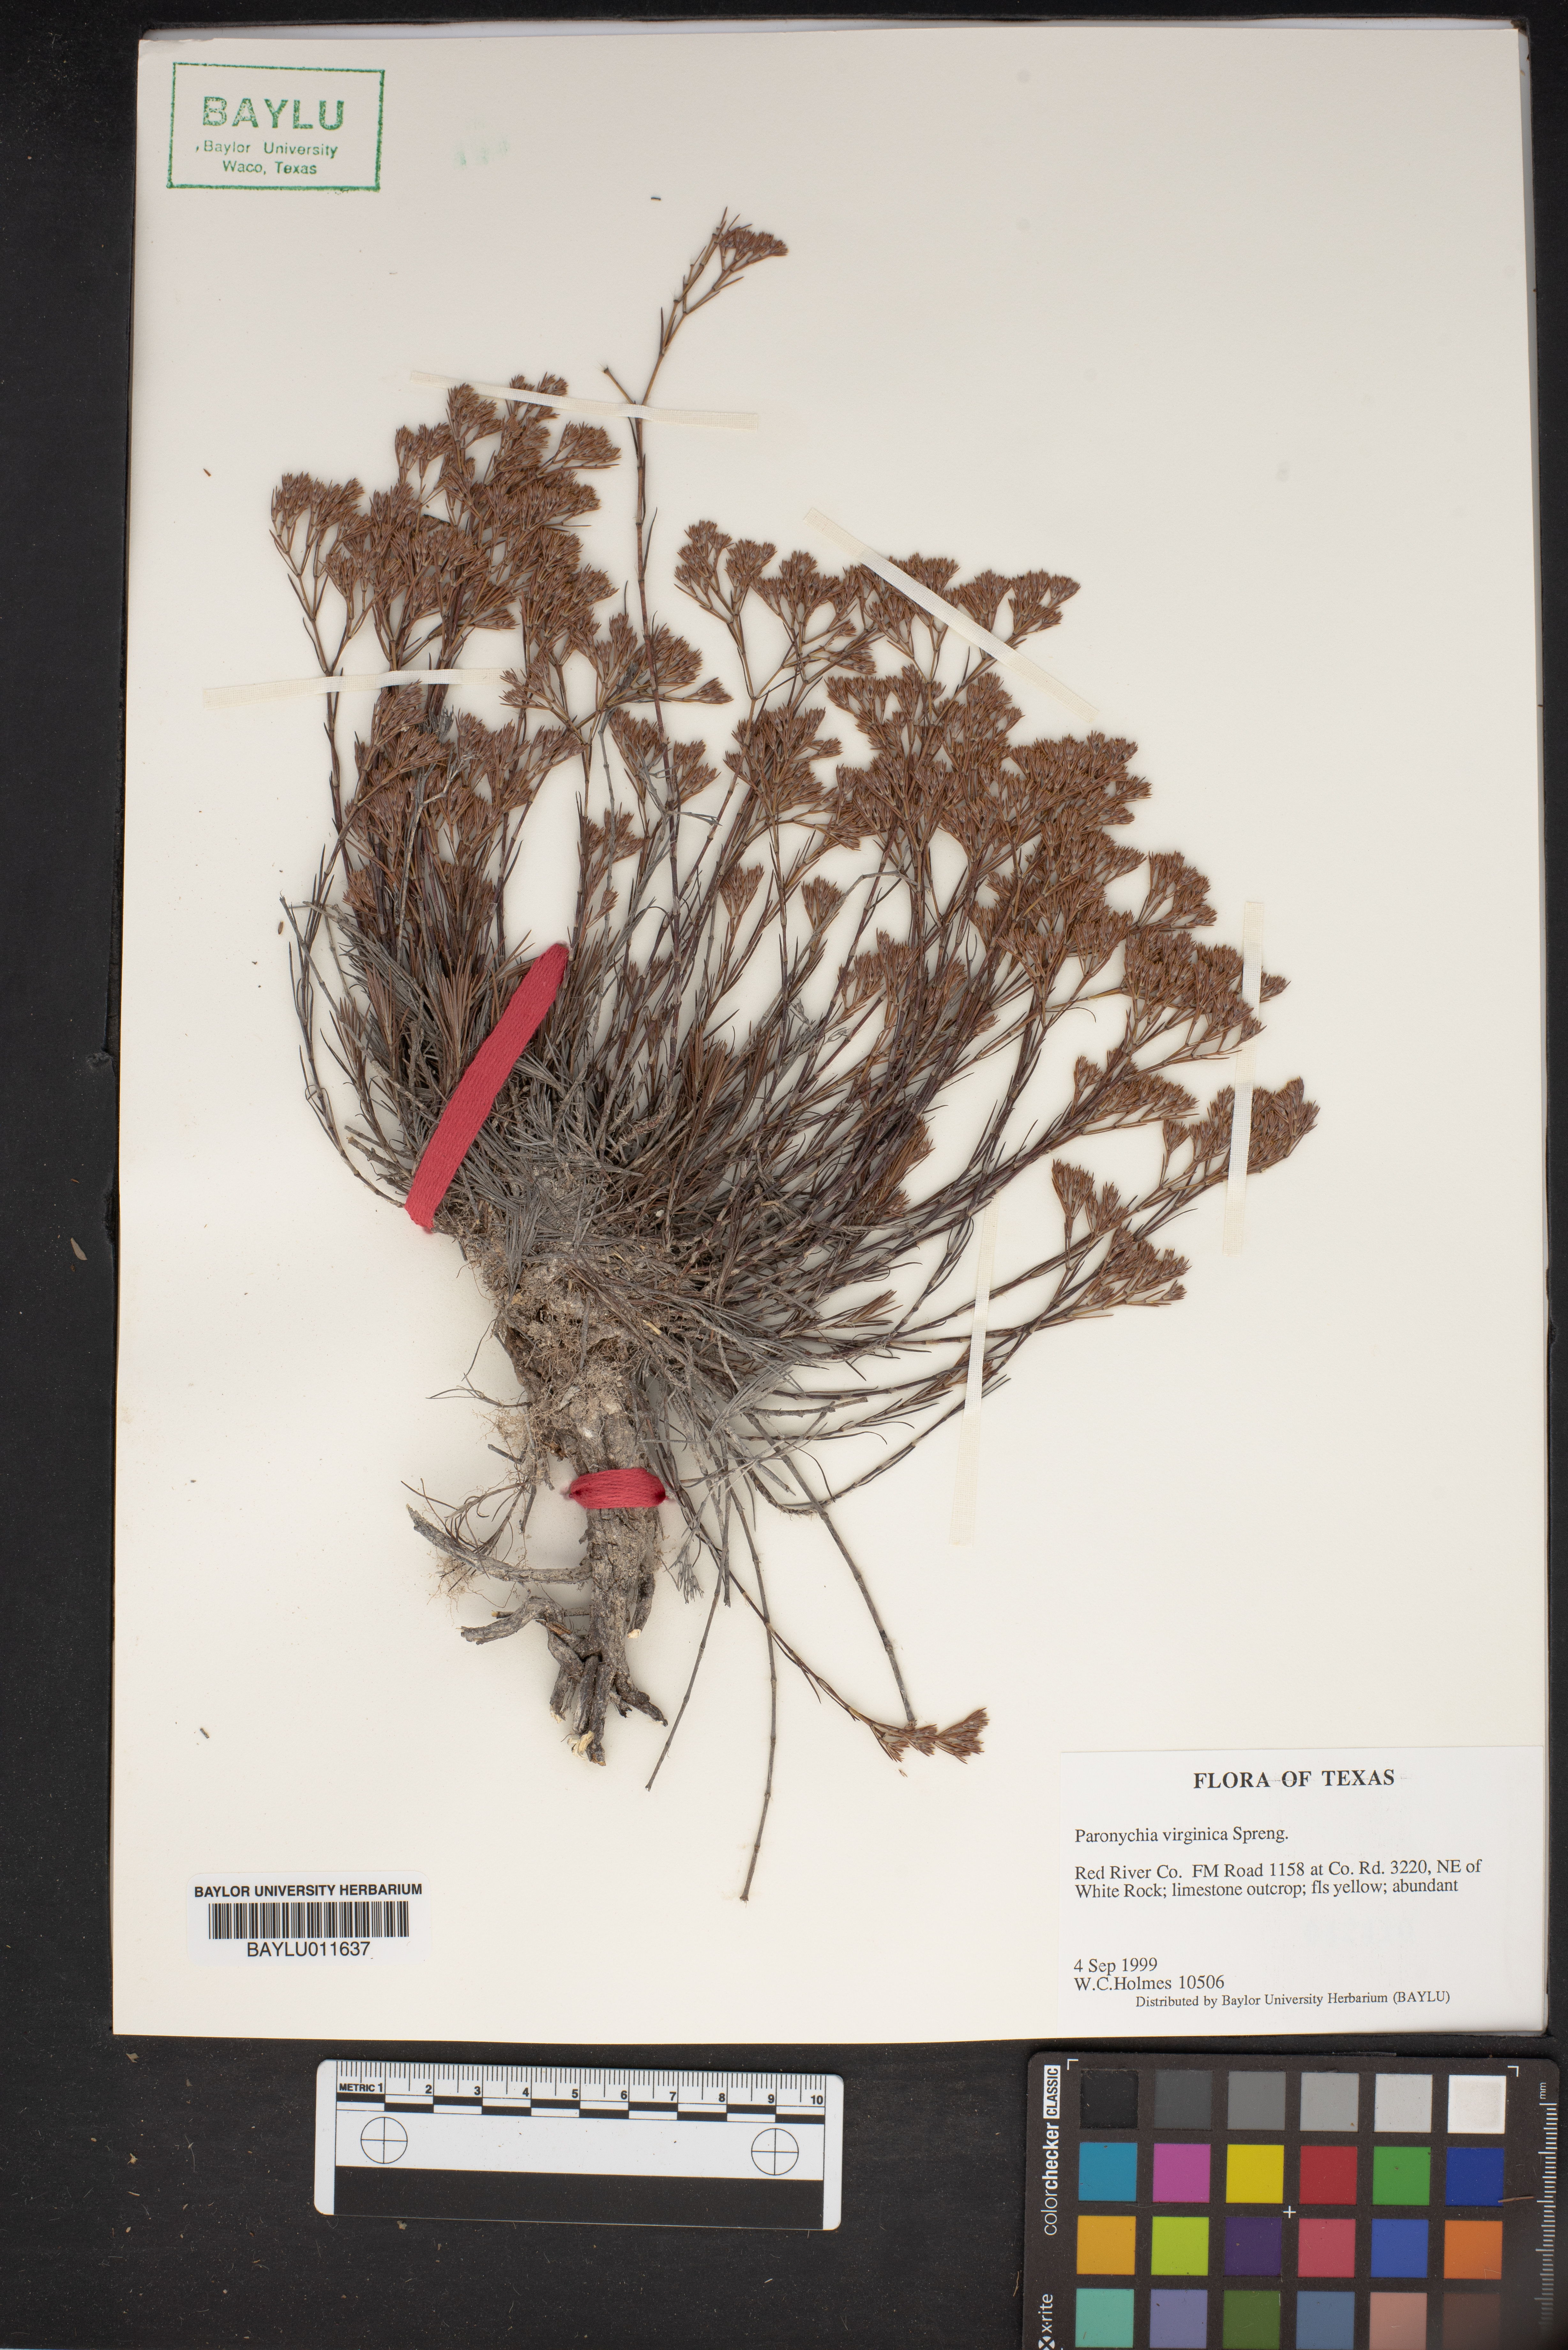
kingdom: Plantae
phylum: Tracheophyta
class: Magnoliopsida
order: Caryophyllales
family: Caryophyllaceae
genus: Paronychia
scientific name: Paronychia virginica
